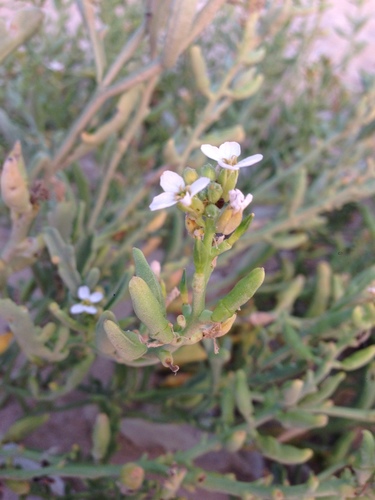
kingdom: Plantae
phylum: Tracheophyta
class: Magnoliopsida
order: Brassicales
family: Brassicaceae
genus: Cakile
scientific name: Cakile maritima
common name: Sea rocket
